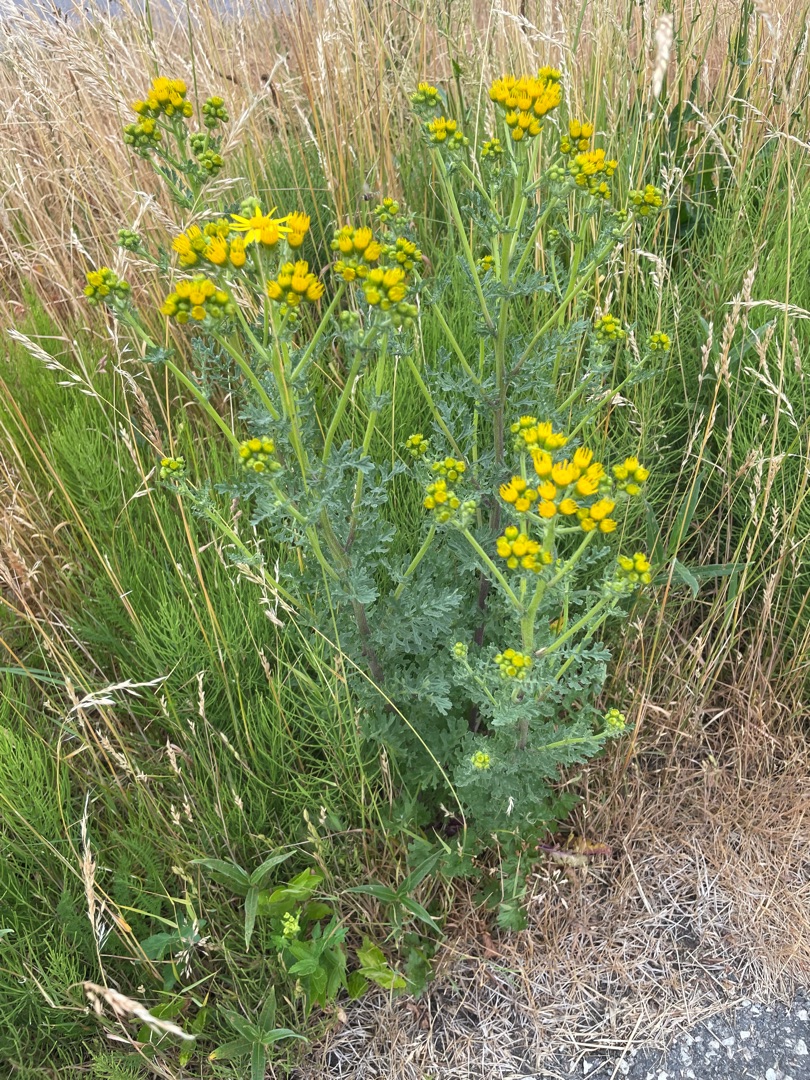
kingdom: Plantae
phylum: Tracheophyta
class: Magnoliopsida
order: Asterales
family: Asteraceae
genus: Jacobaea
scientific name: Jacobaea vulgaris
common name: Eng-brandbæger
